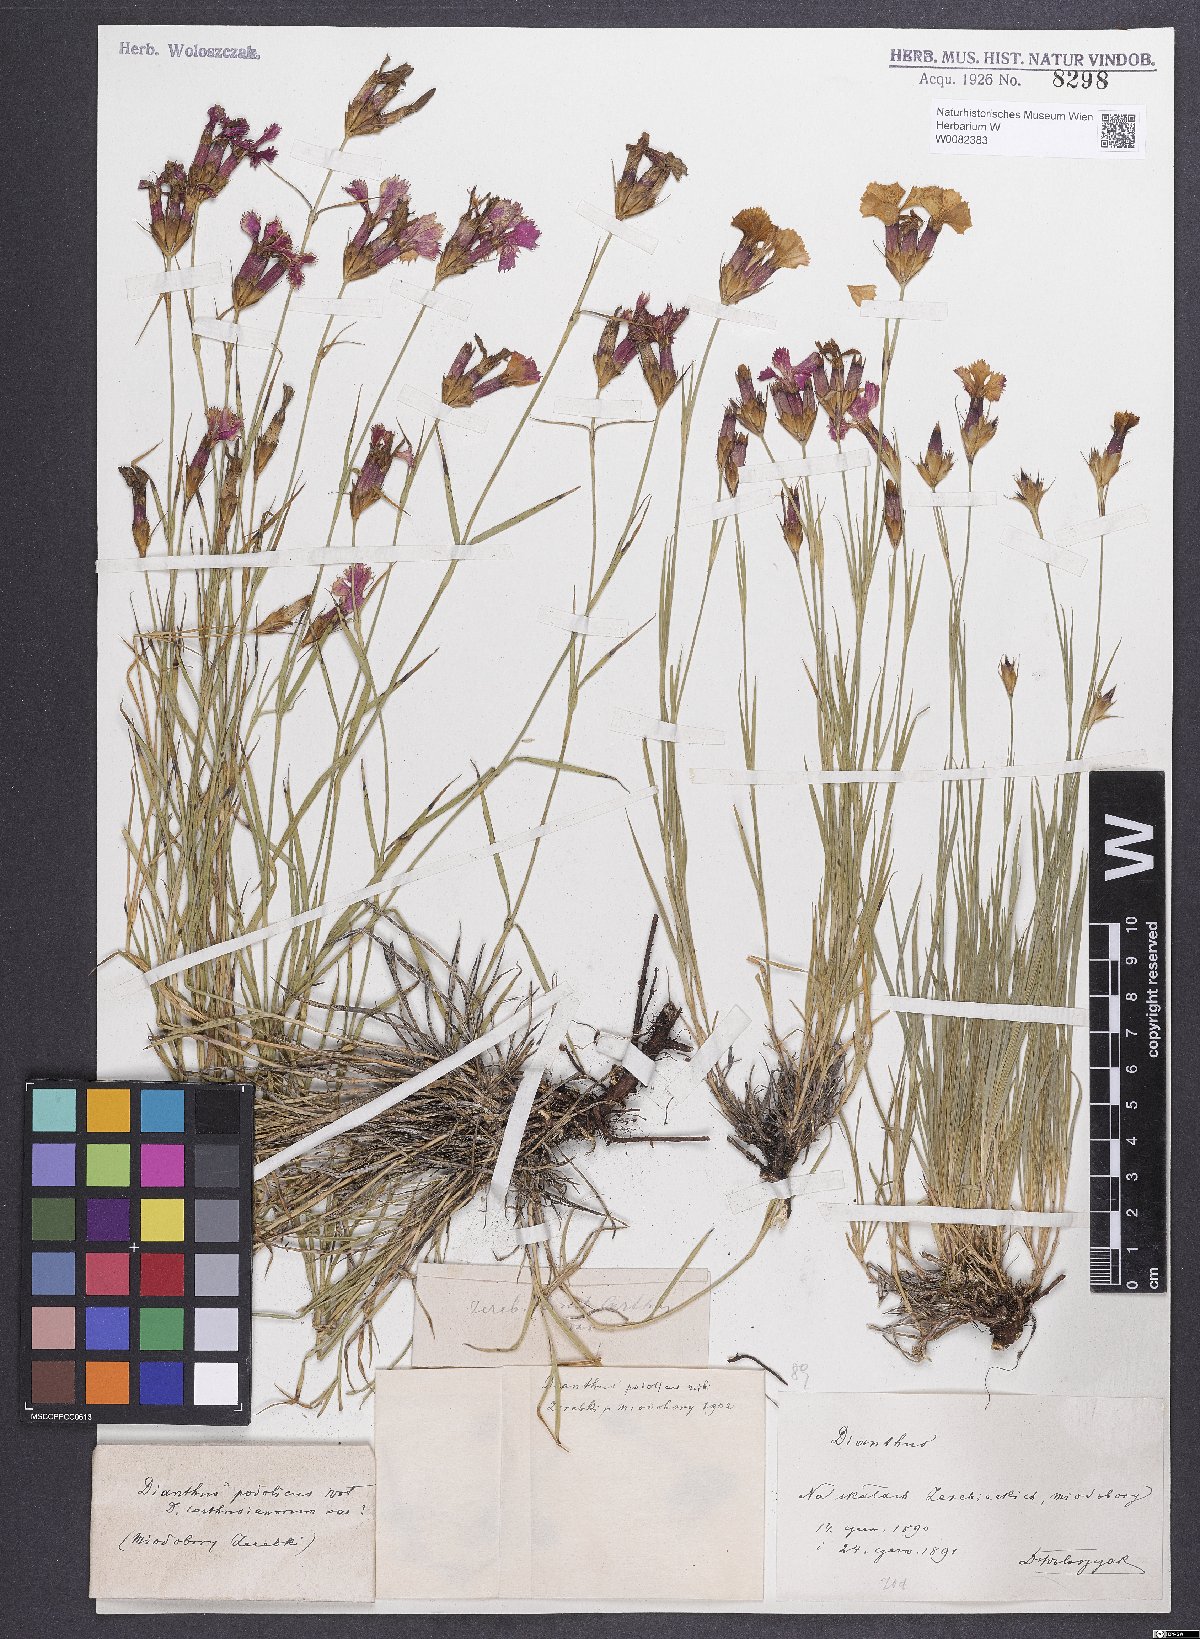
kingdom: Plantae
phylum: Tracheophyta
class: Magnoliopsida
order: Caryophyllales
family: Caryophyllaceae
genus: Dianthus
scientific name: Dianthus carthusianorum
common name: Carthusian pink
